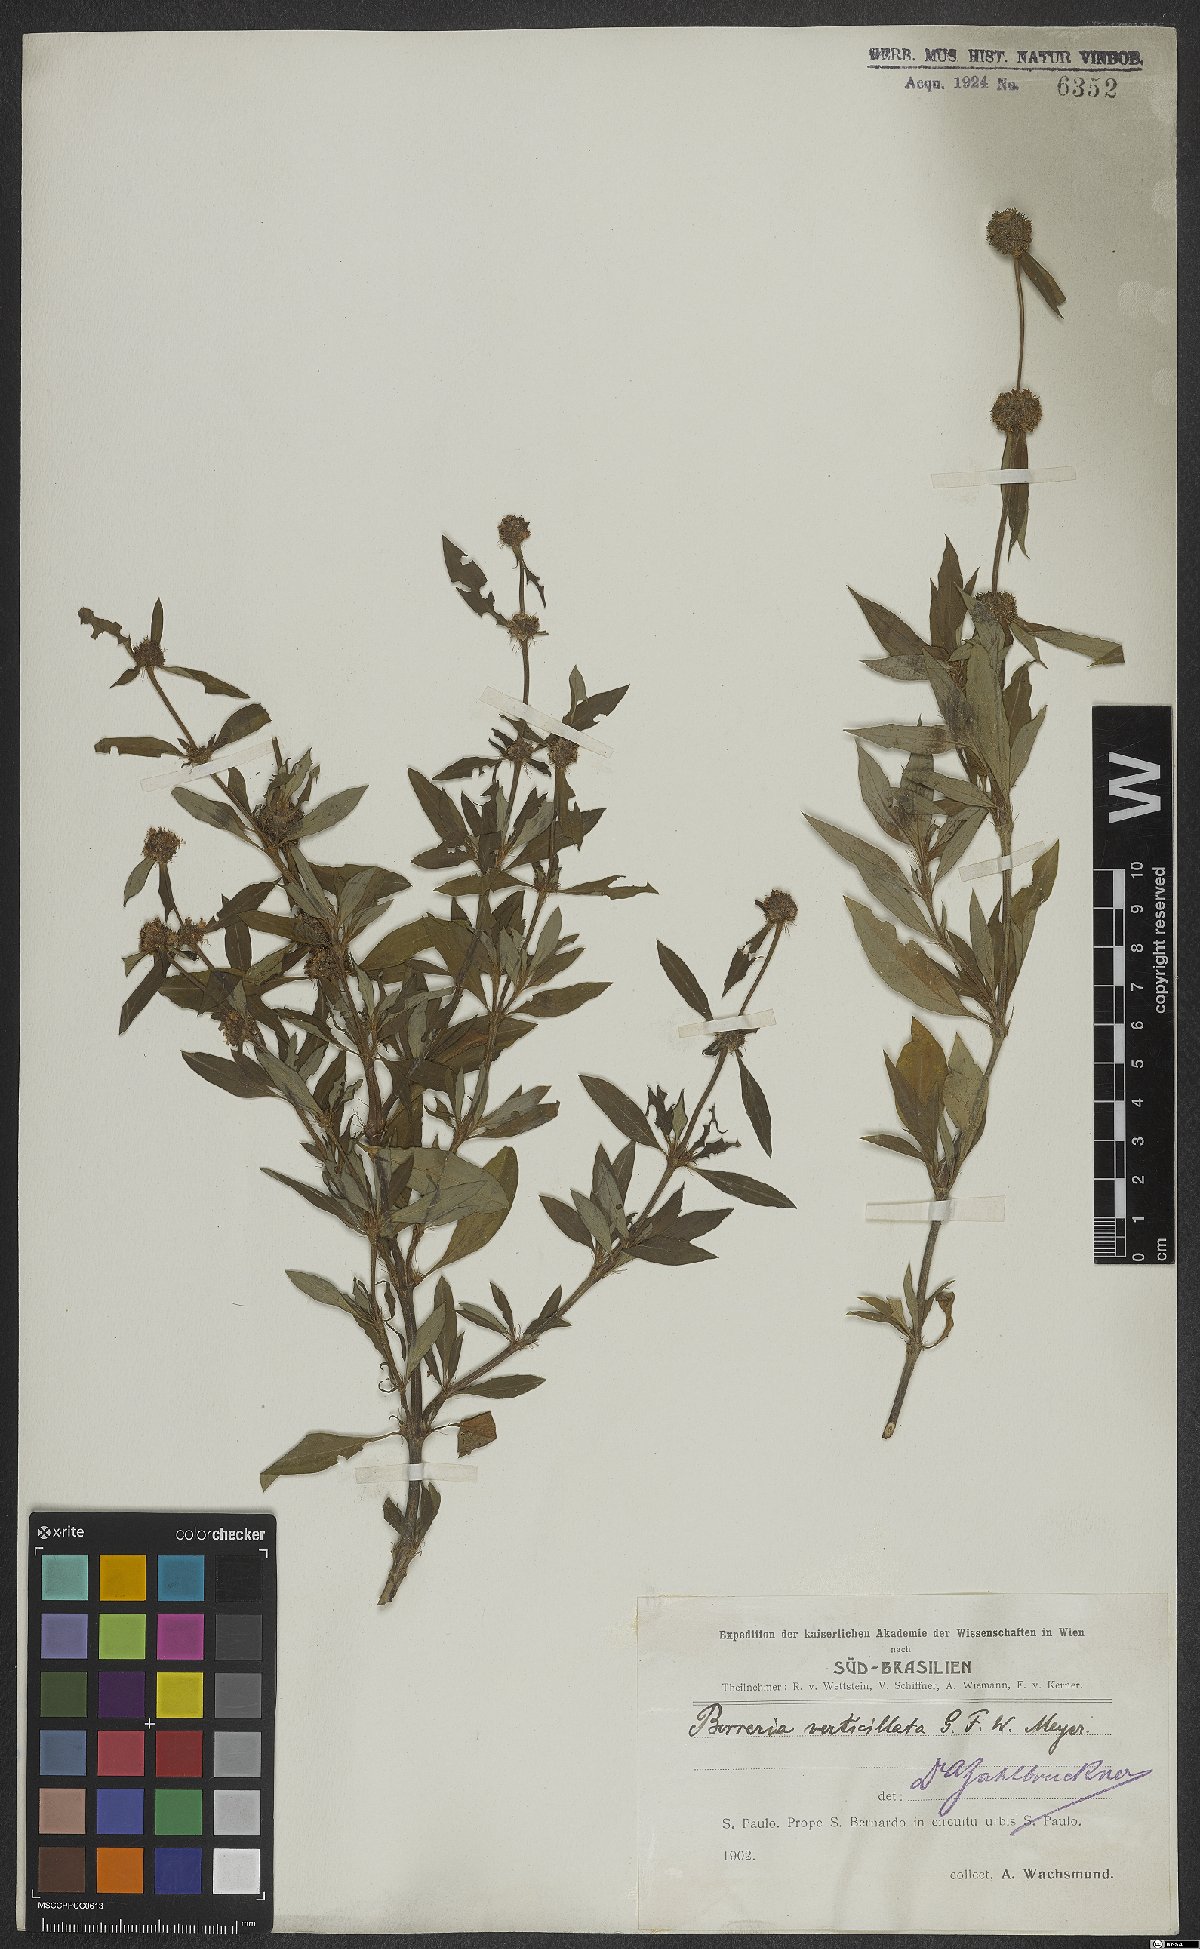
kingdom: Plantae
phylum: Tracheophyta
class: Magnoliopsida
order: Gentianales
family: Rubiaceae
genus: Spermacoce
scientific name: Spermacoce verticillata
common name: Shrubby false buttonweed
